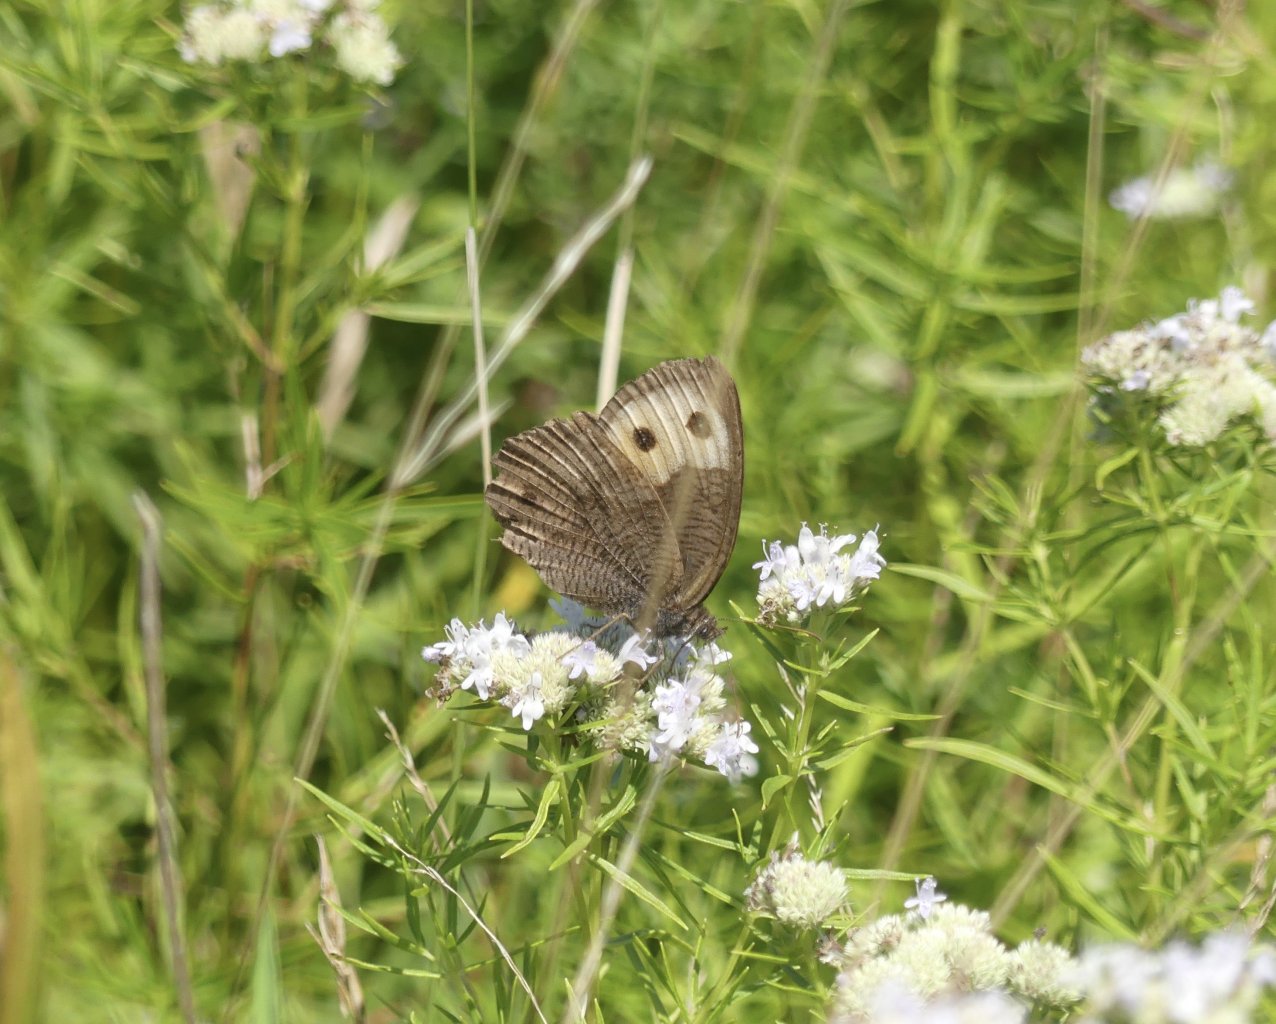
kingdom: Animalia
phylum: Arthropoda
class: Insecta
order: Lepidoptera
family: Nymphalidae
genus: Cercyonis
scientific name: Cercyonis pegala
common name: Common Wood-Nymph
